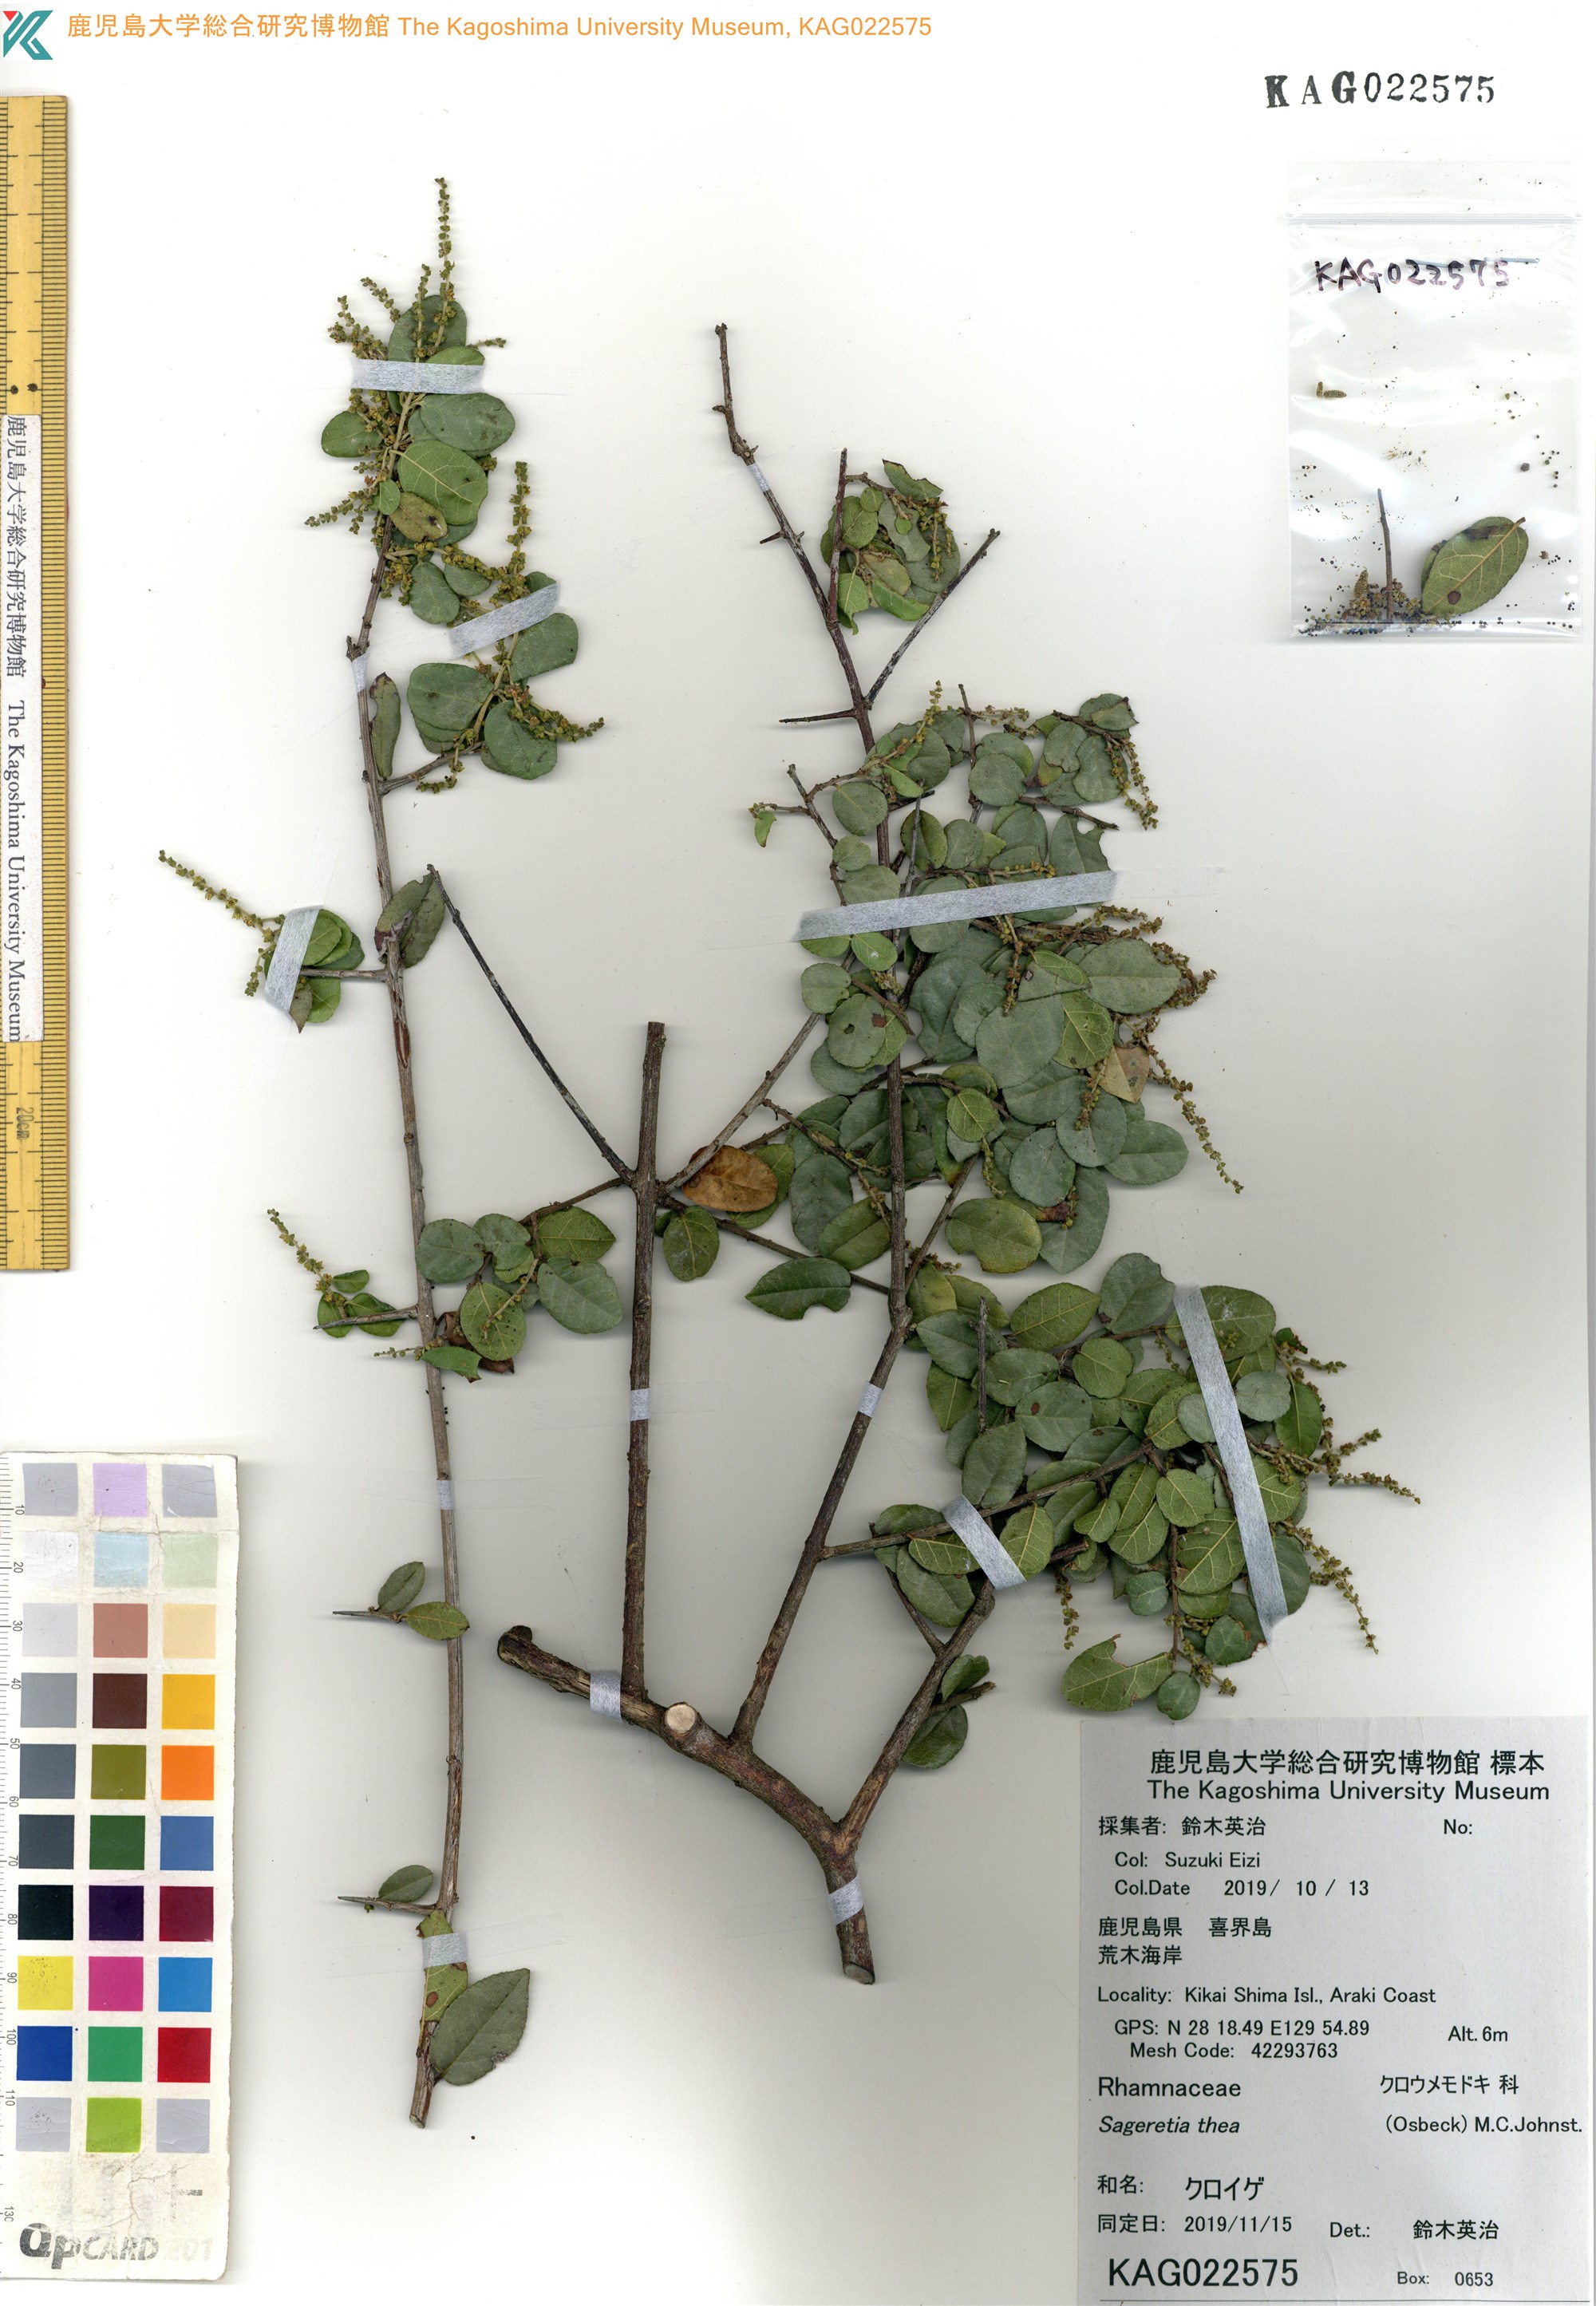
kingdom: Plantae
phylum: Tracheophyta
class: Magnoliopsida
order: Rosales
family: Rhamnaceae
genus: Sageretia
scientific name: Sageretia thea
